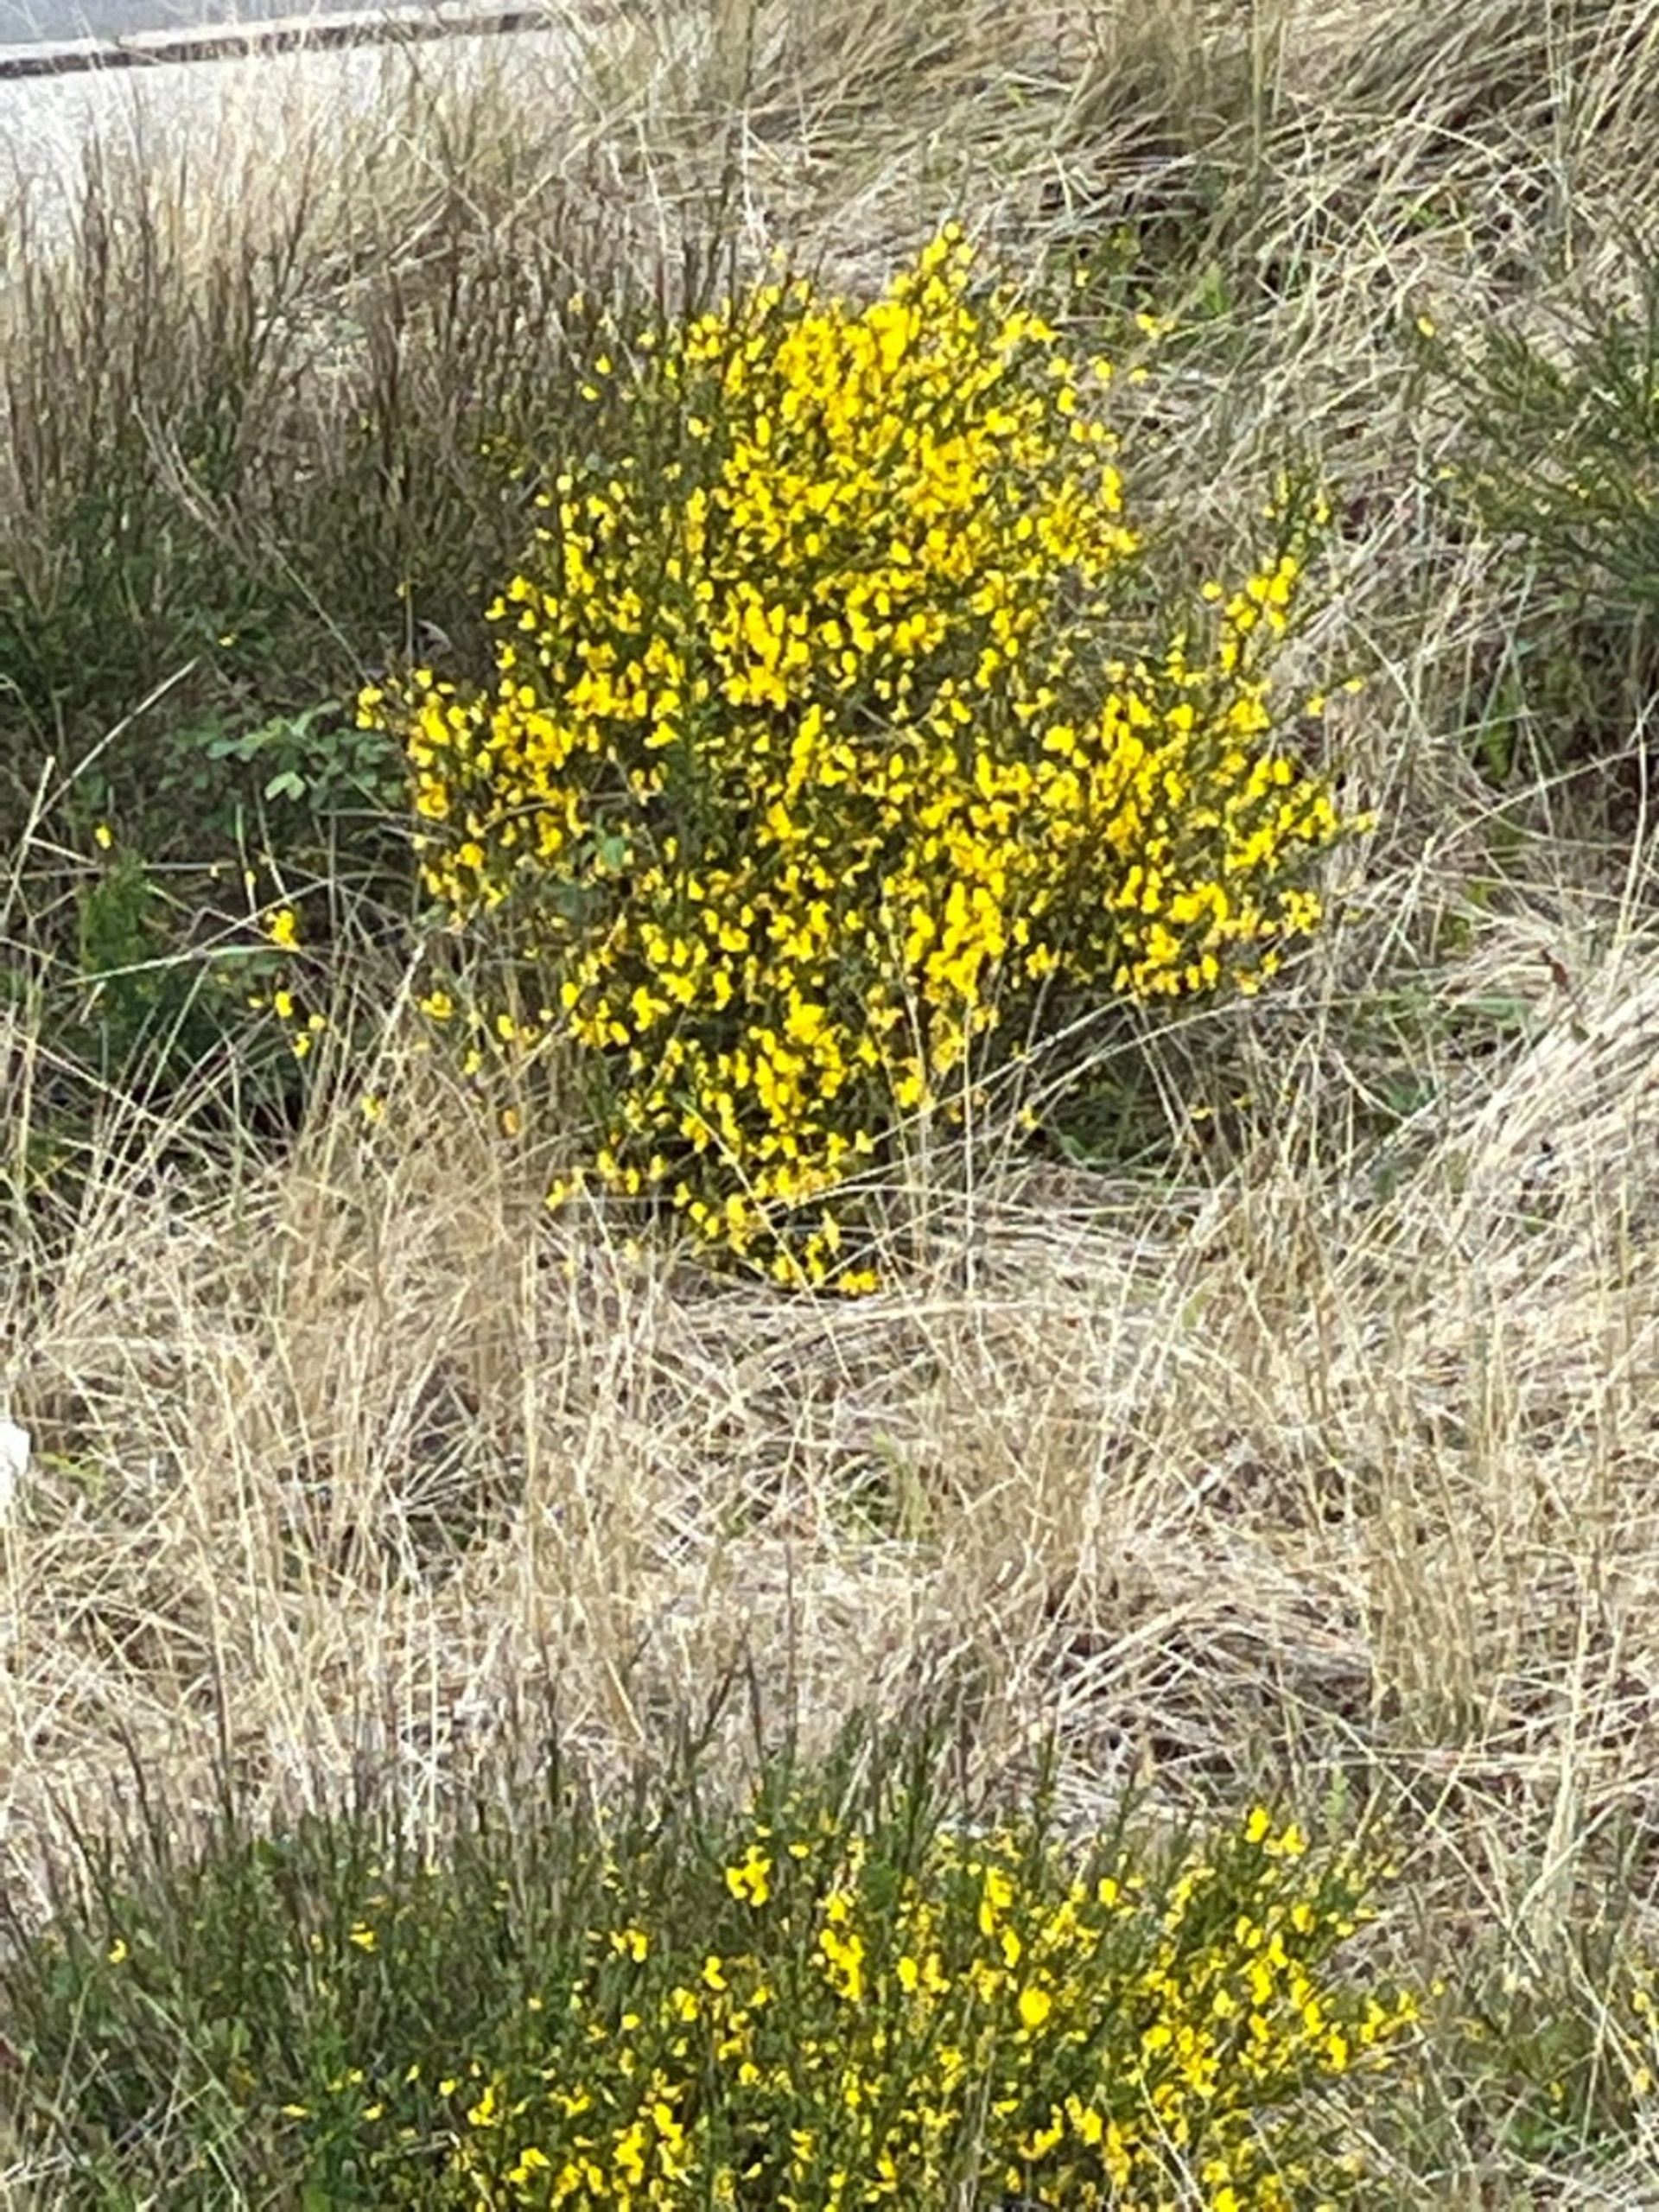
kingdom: Plantae
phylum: Tracheophyta
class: Magnoliopsida
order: Fabales
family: Fabaceae
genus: Cytisus
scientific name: Cytisus scoparius
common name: Almindelig gyvel
